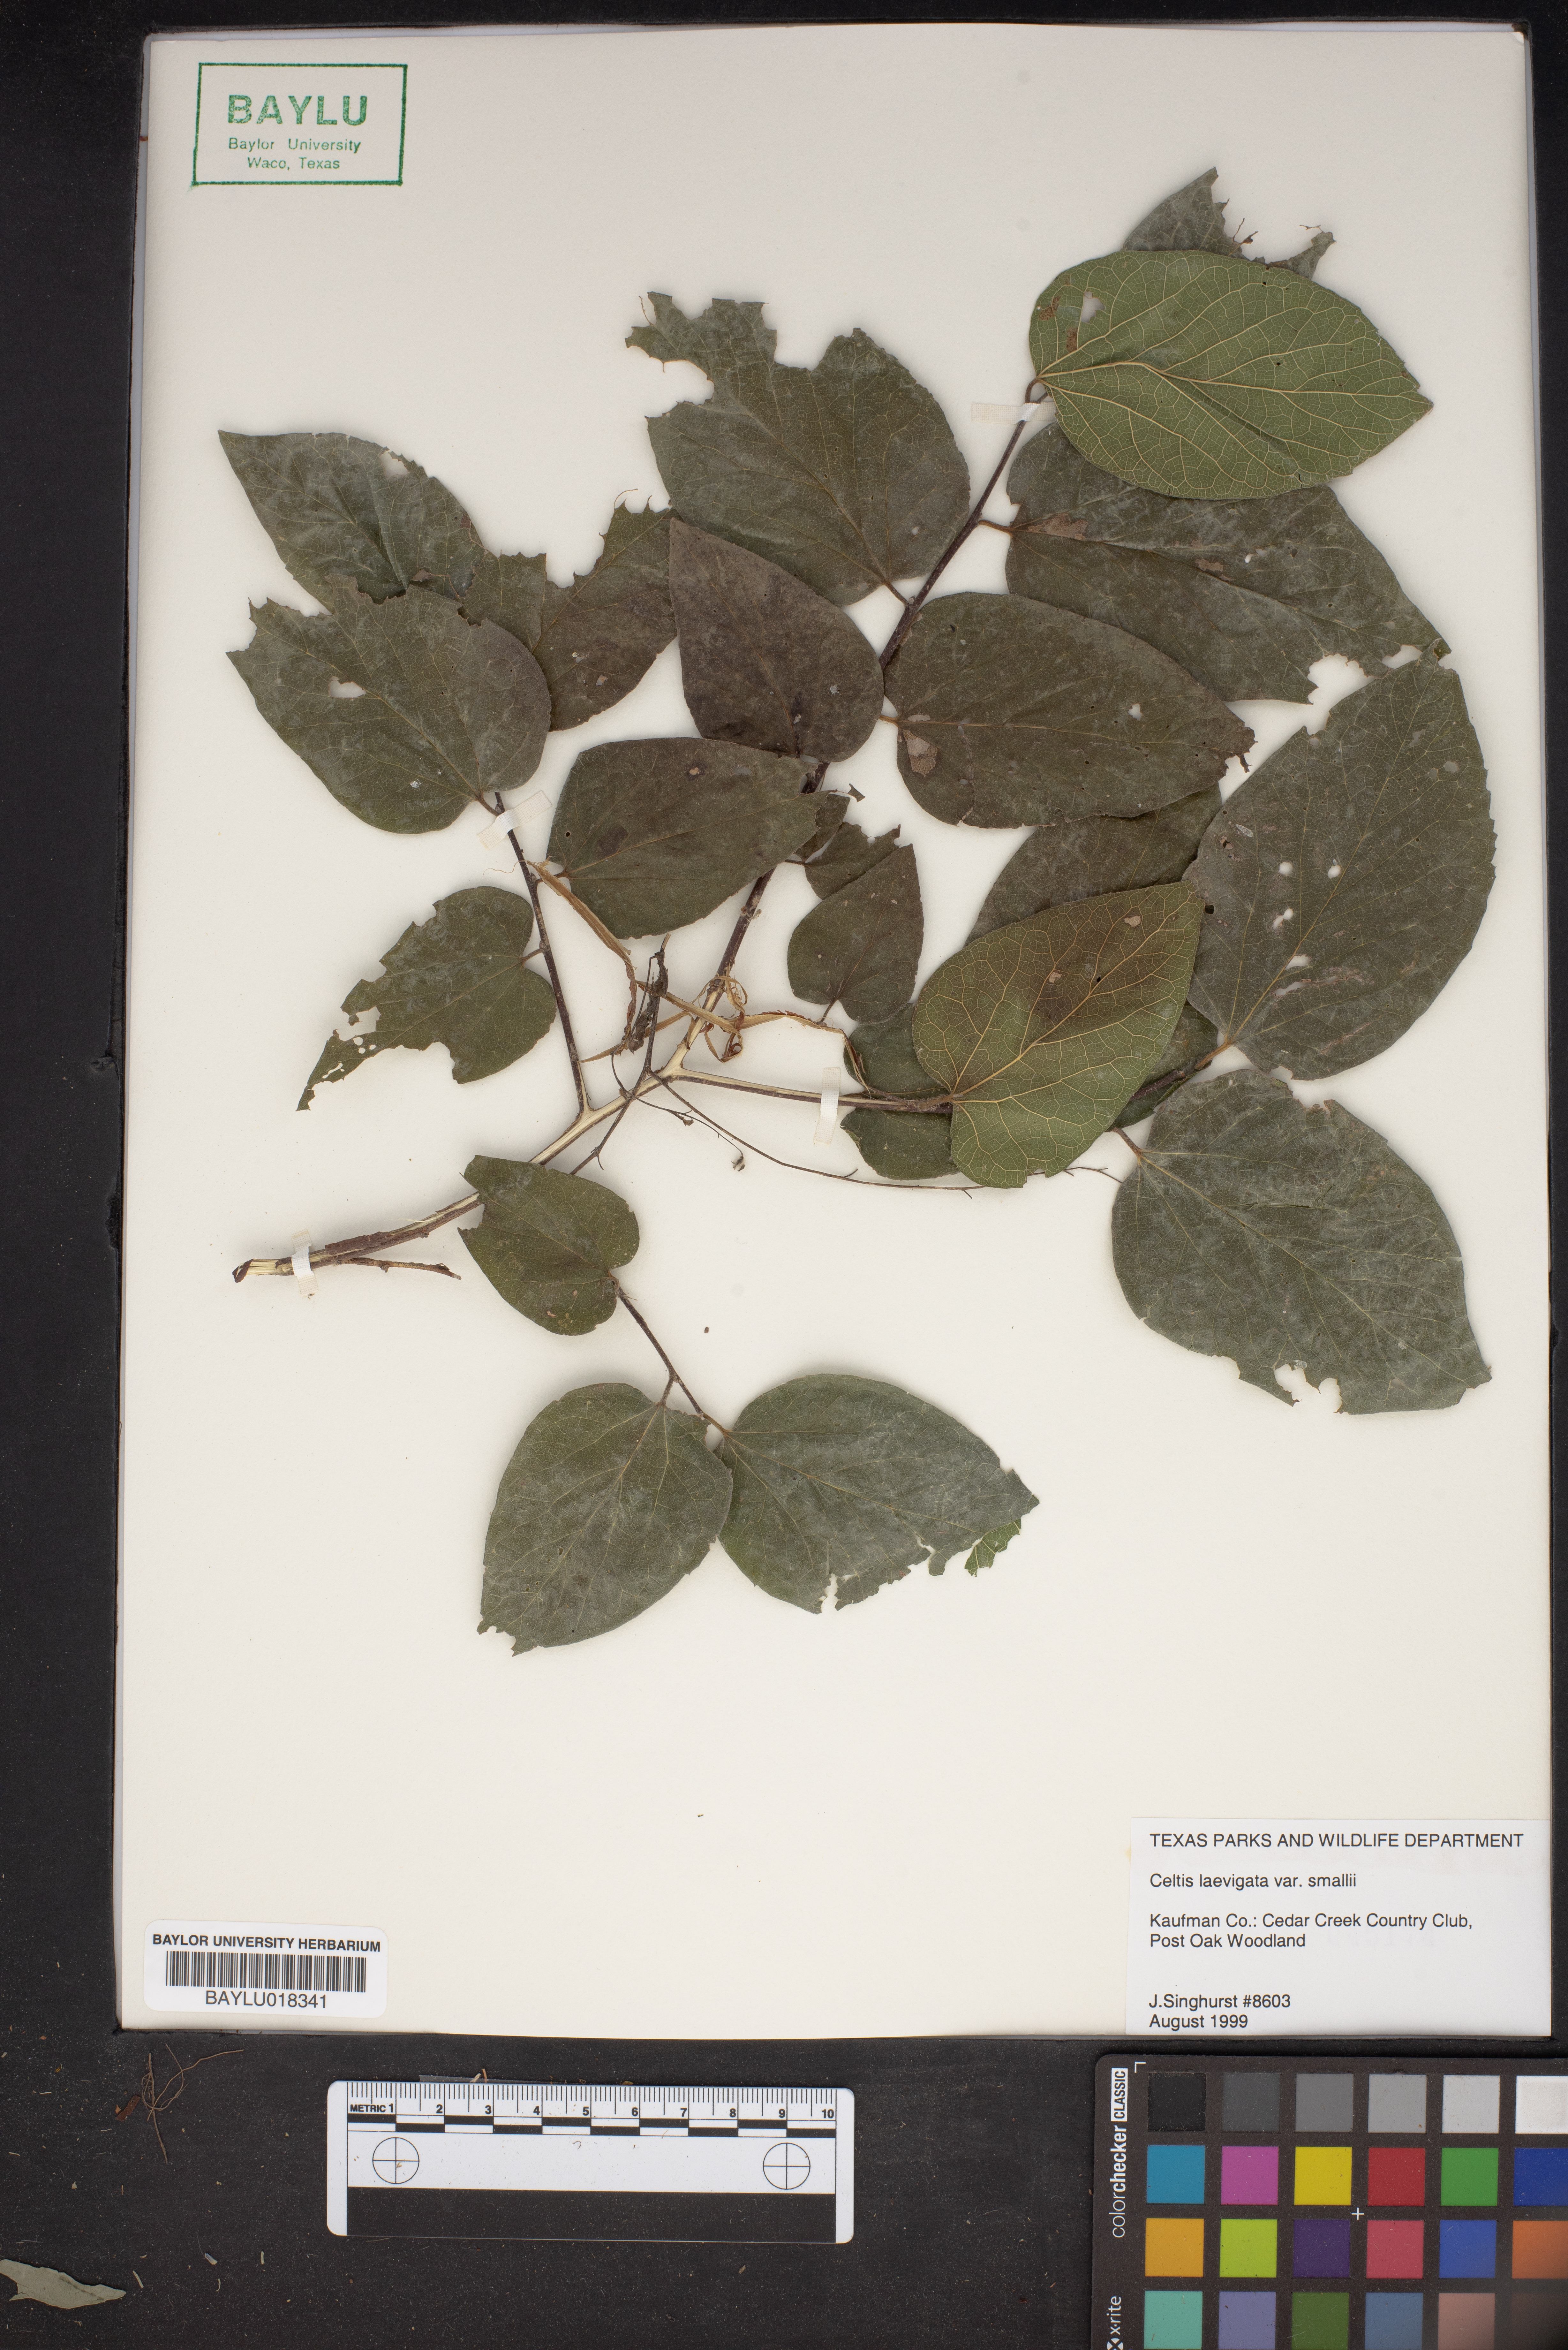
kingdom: Plantae
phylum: Tracheophyta
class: Magnoliopsida
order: Rosales
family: Cannabaceae
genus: Celtis
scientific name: Celtis
